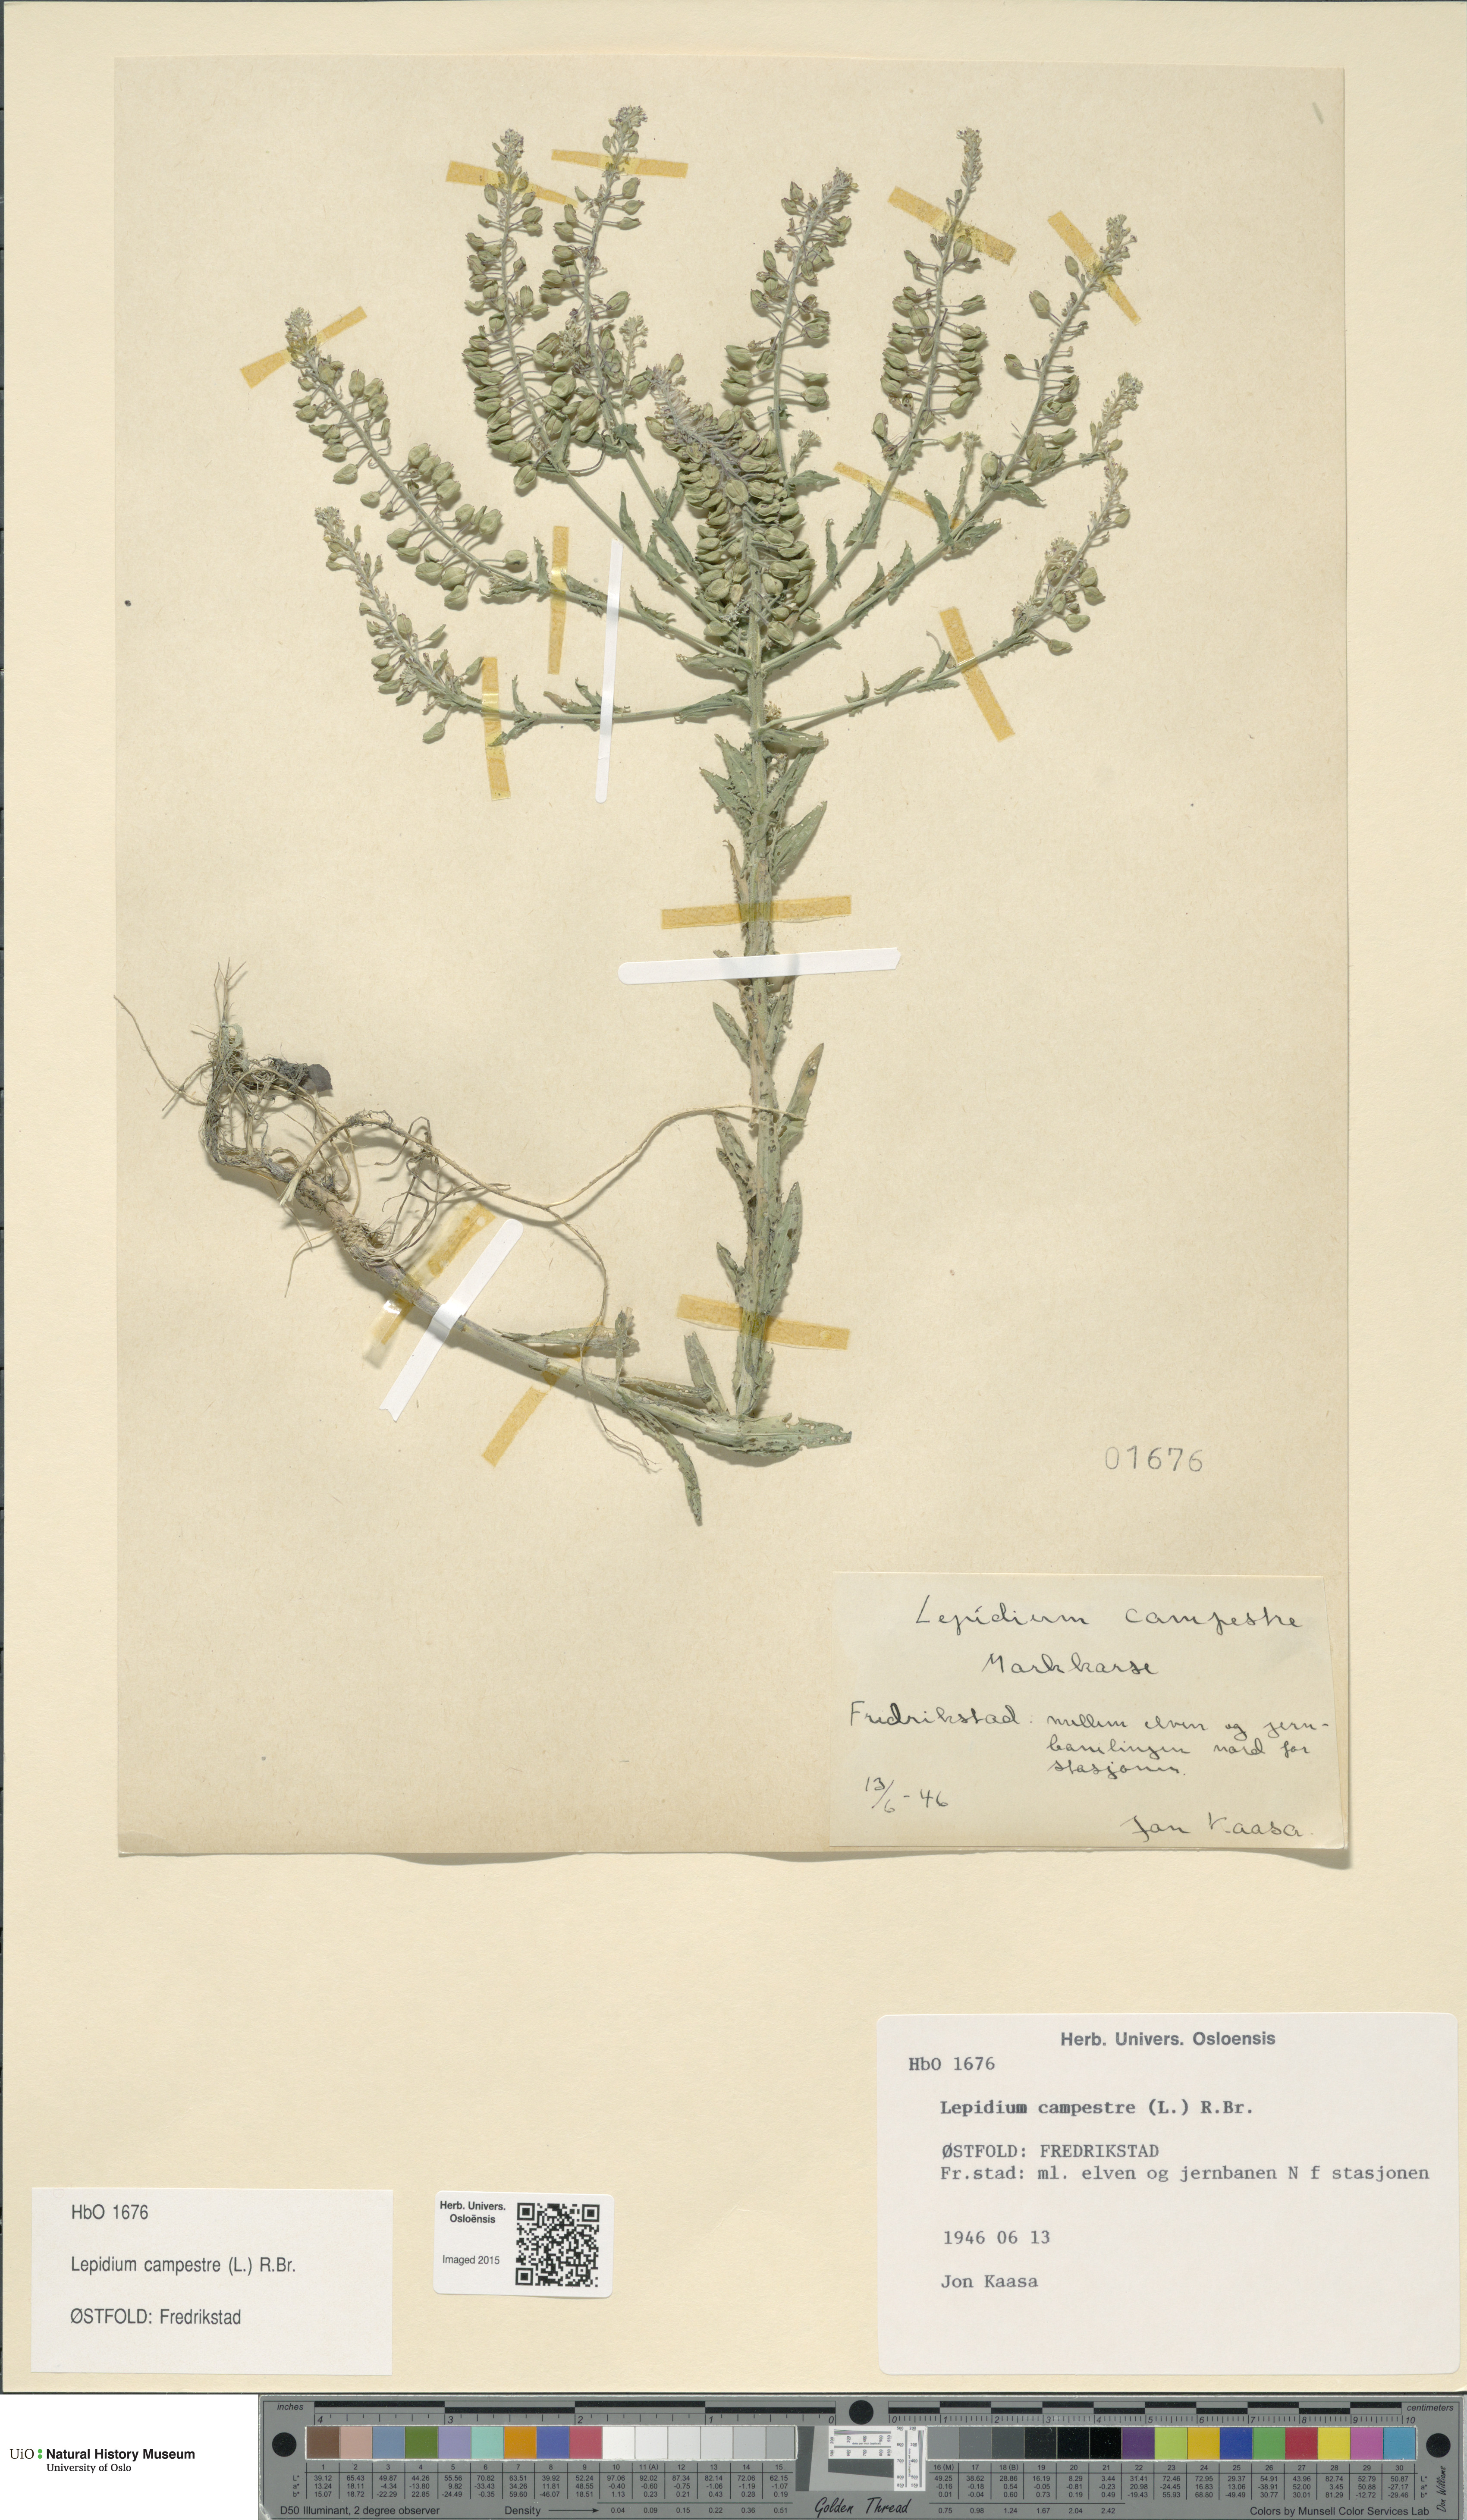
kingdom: Plantae
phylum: Tracheophyta
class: Magnoliopsida
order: Brassicales
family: Brassicaceae
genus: Lepidium
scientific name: Lepidium campestre
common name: Field pepperwort
